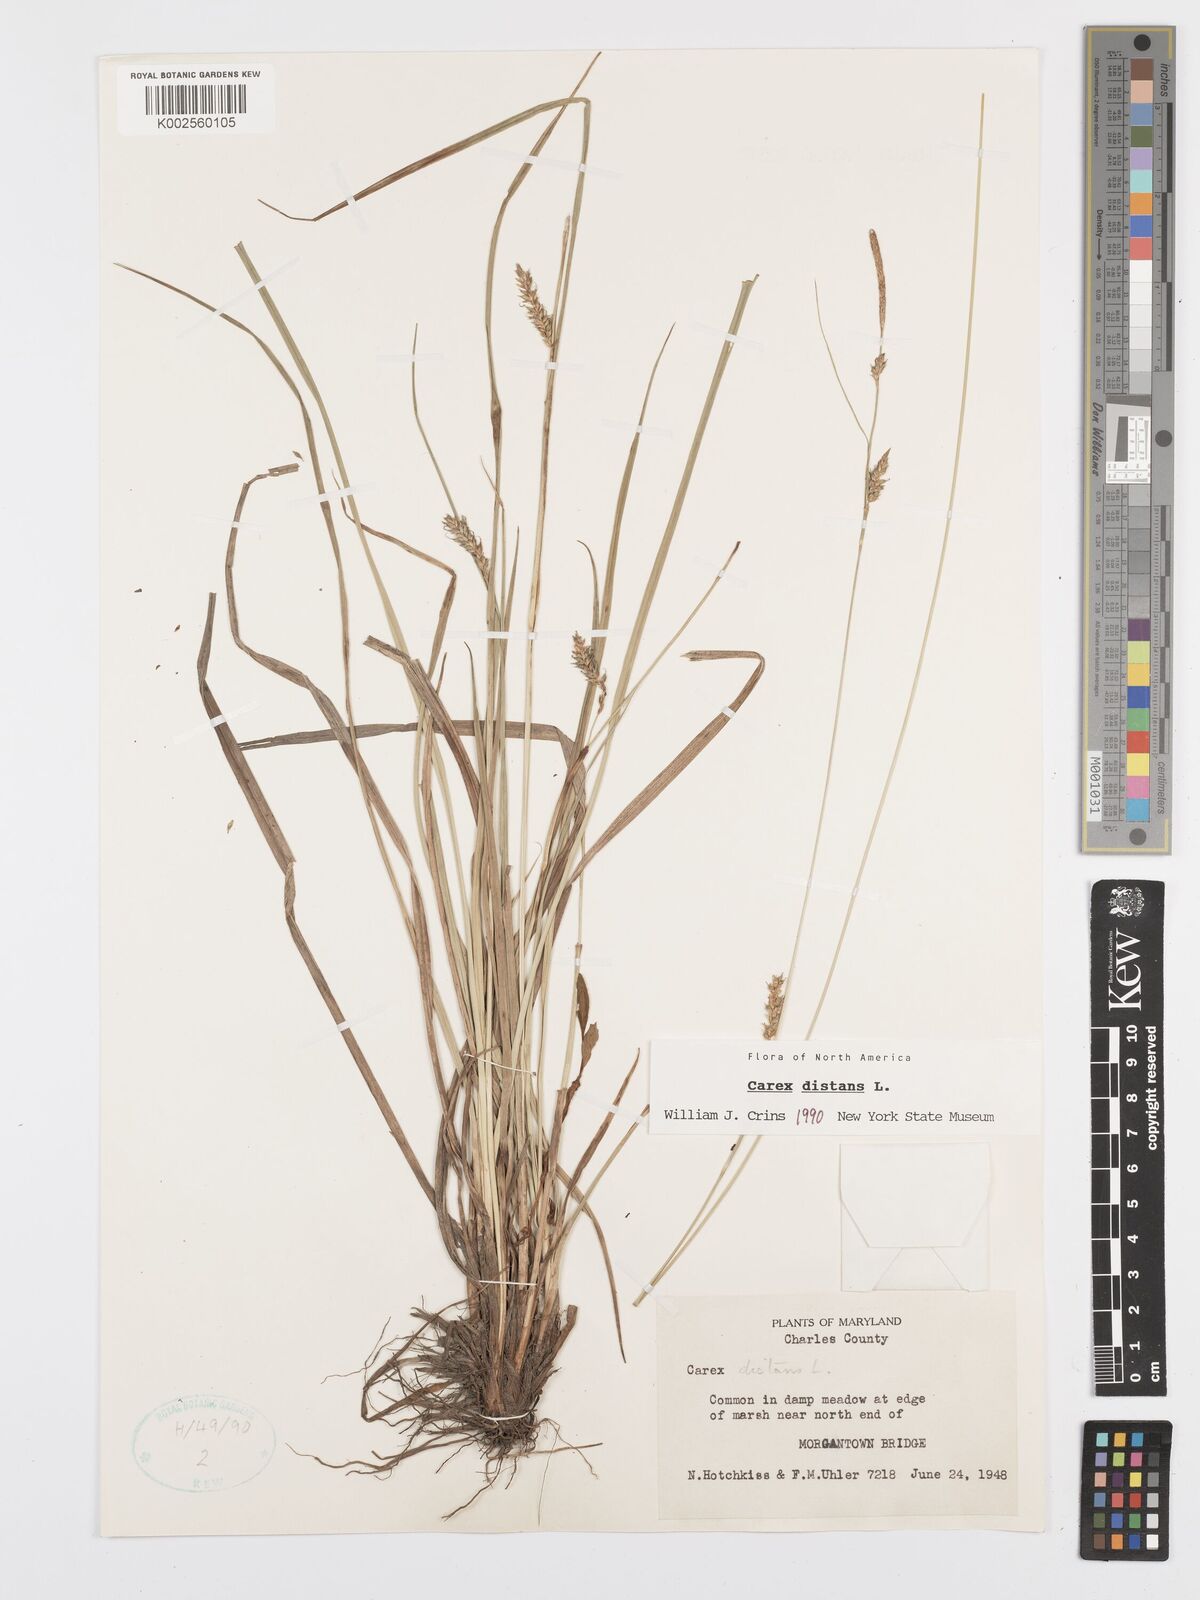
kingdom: Plantae
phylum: Tracheophyta
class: Liliopsida
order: Poales
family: Cyperaceae
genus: Carex
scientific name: Carex distans
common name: Distant sedge
